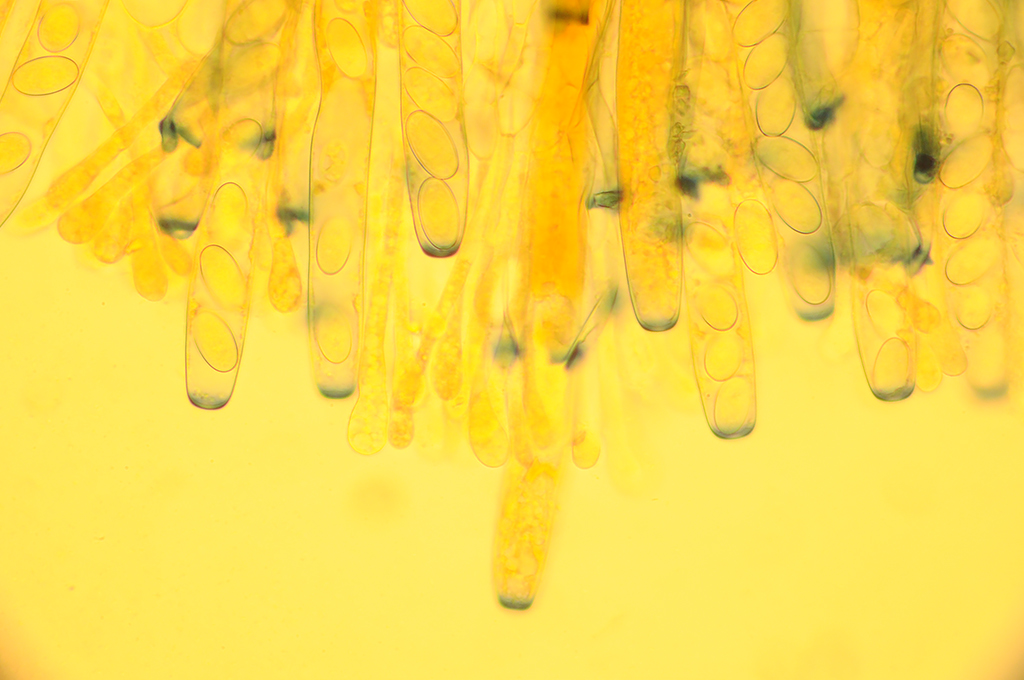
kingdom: Fungi
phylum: Ascomycota
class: Pezizomycetes
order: Pezizales
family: Pezizaceae
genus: Peziza
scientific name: Peziza vesiculosa
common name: blære-bægersvamp
